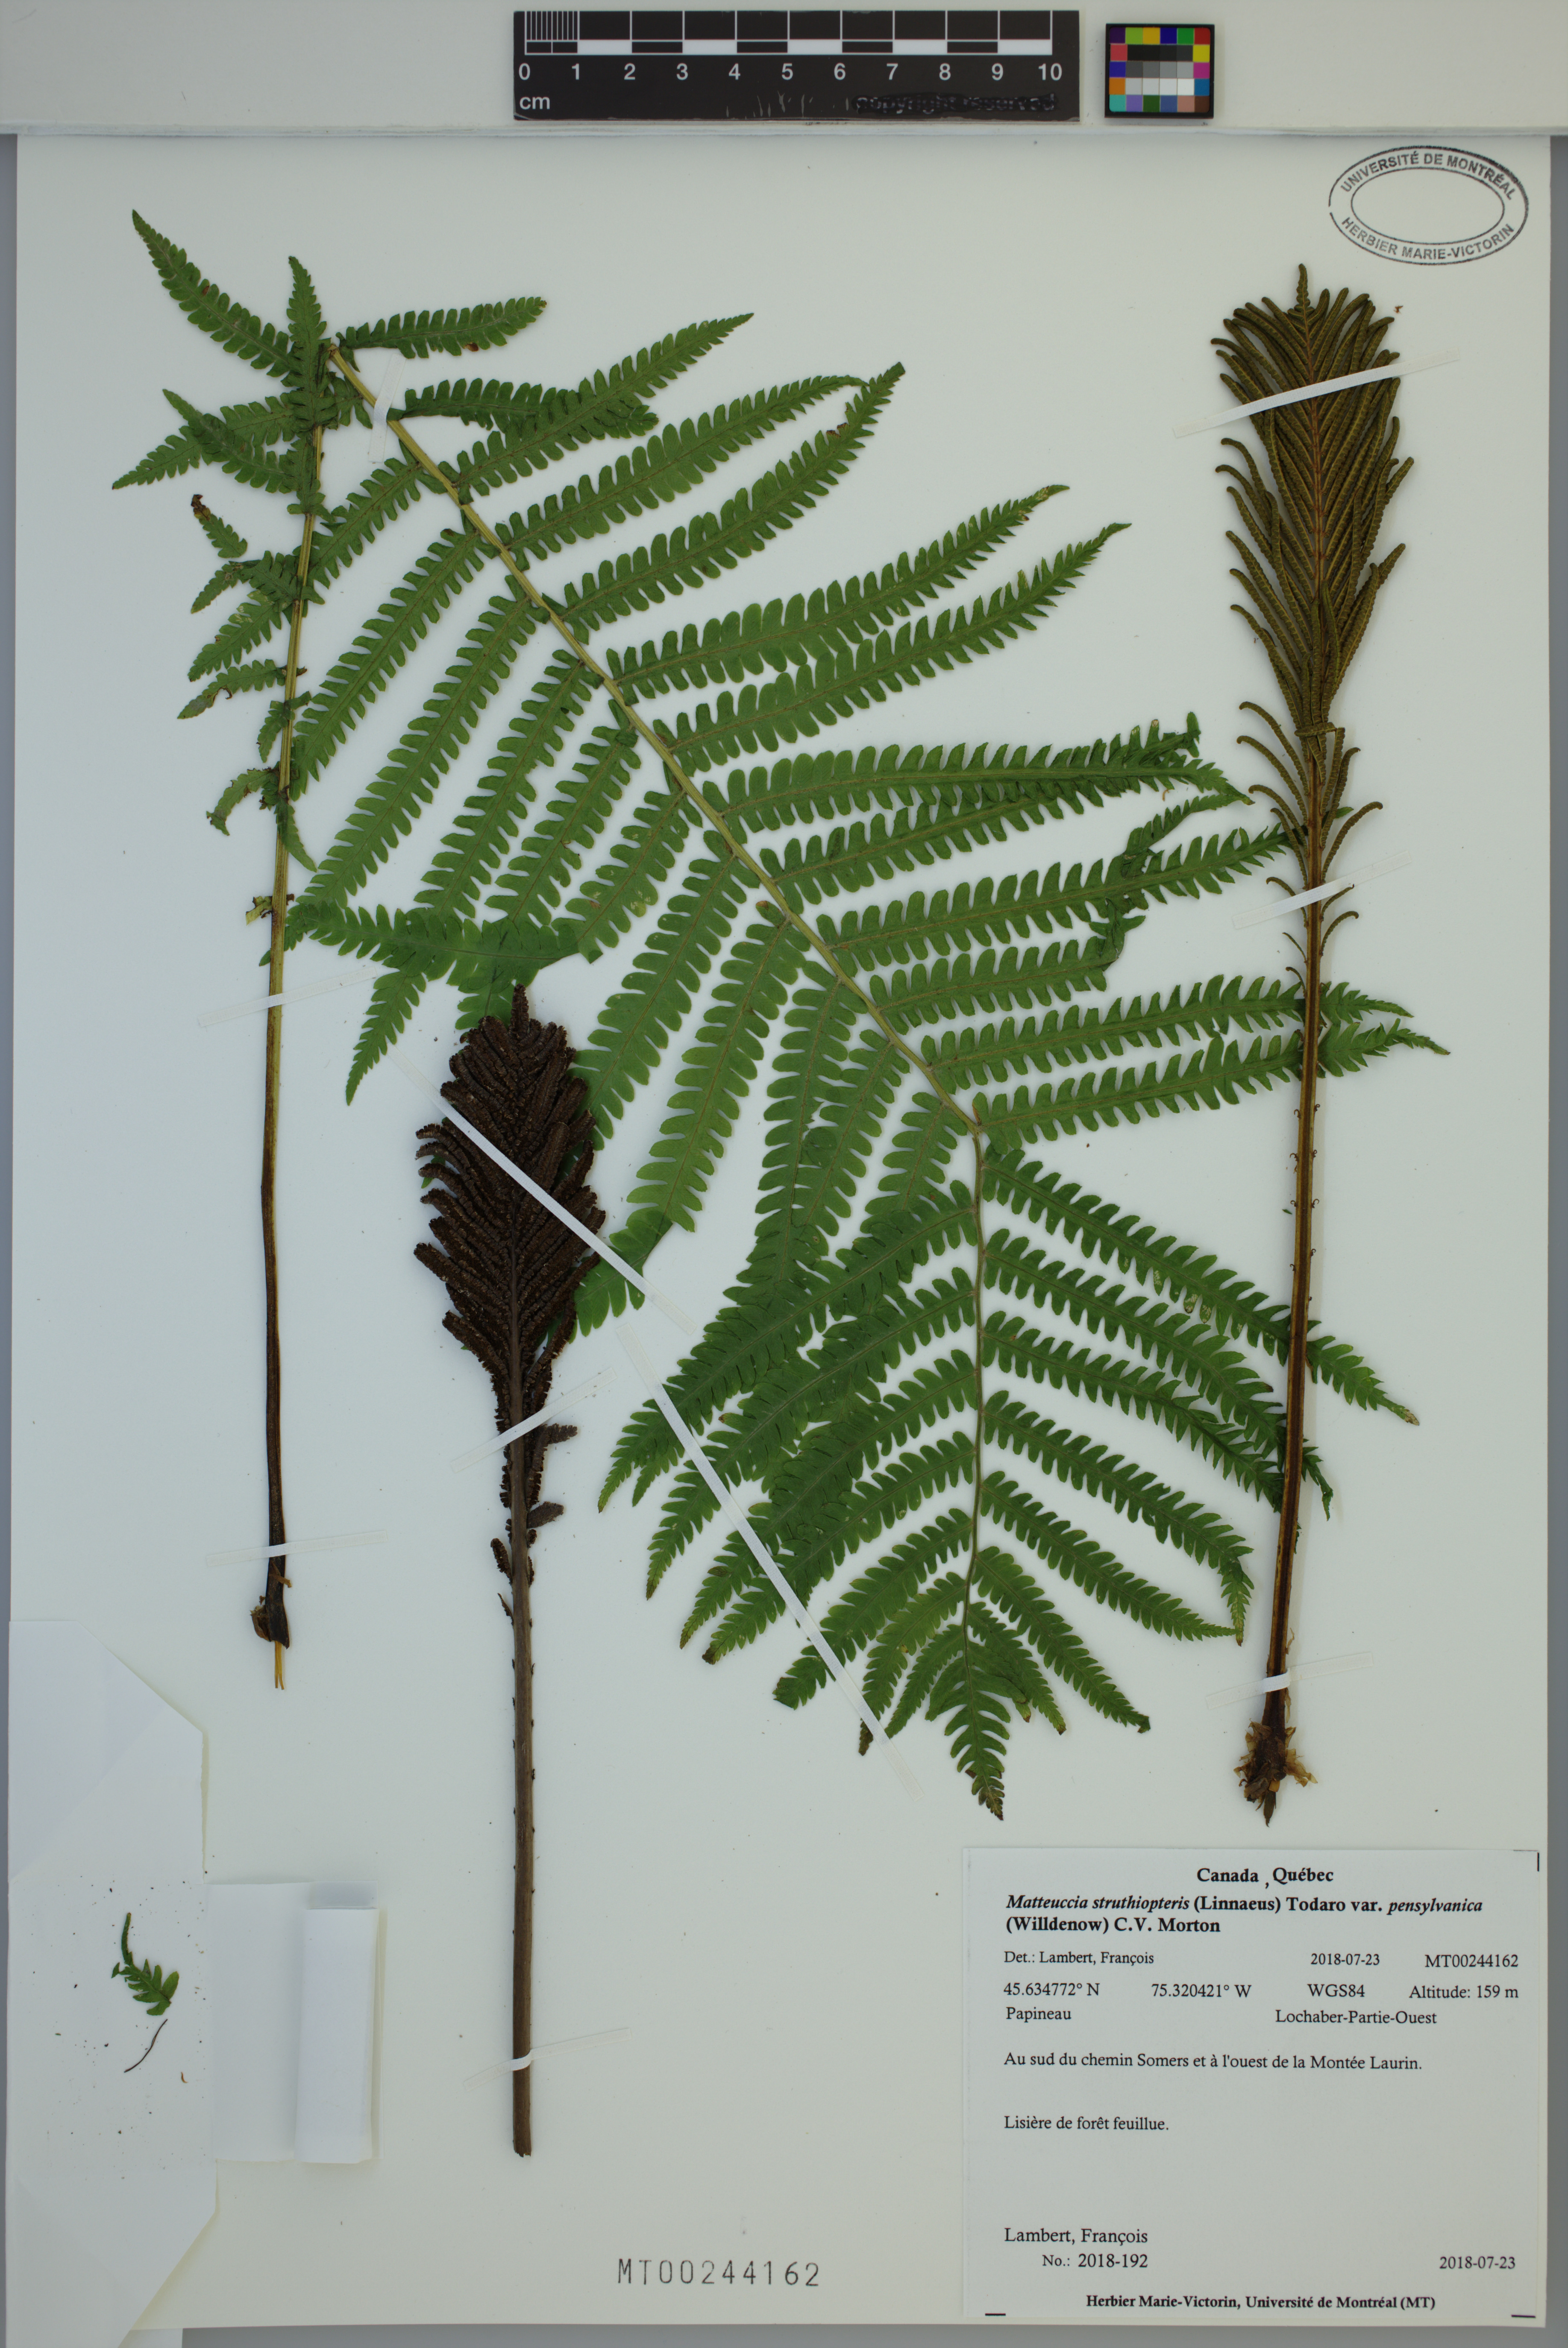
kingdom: Plantae
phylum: Tracheophyta
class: Polypodiopsida
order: Polypodiales
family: Onocleaceae
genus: Matteuccia
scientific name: Matteuccia pensylvanica
